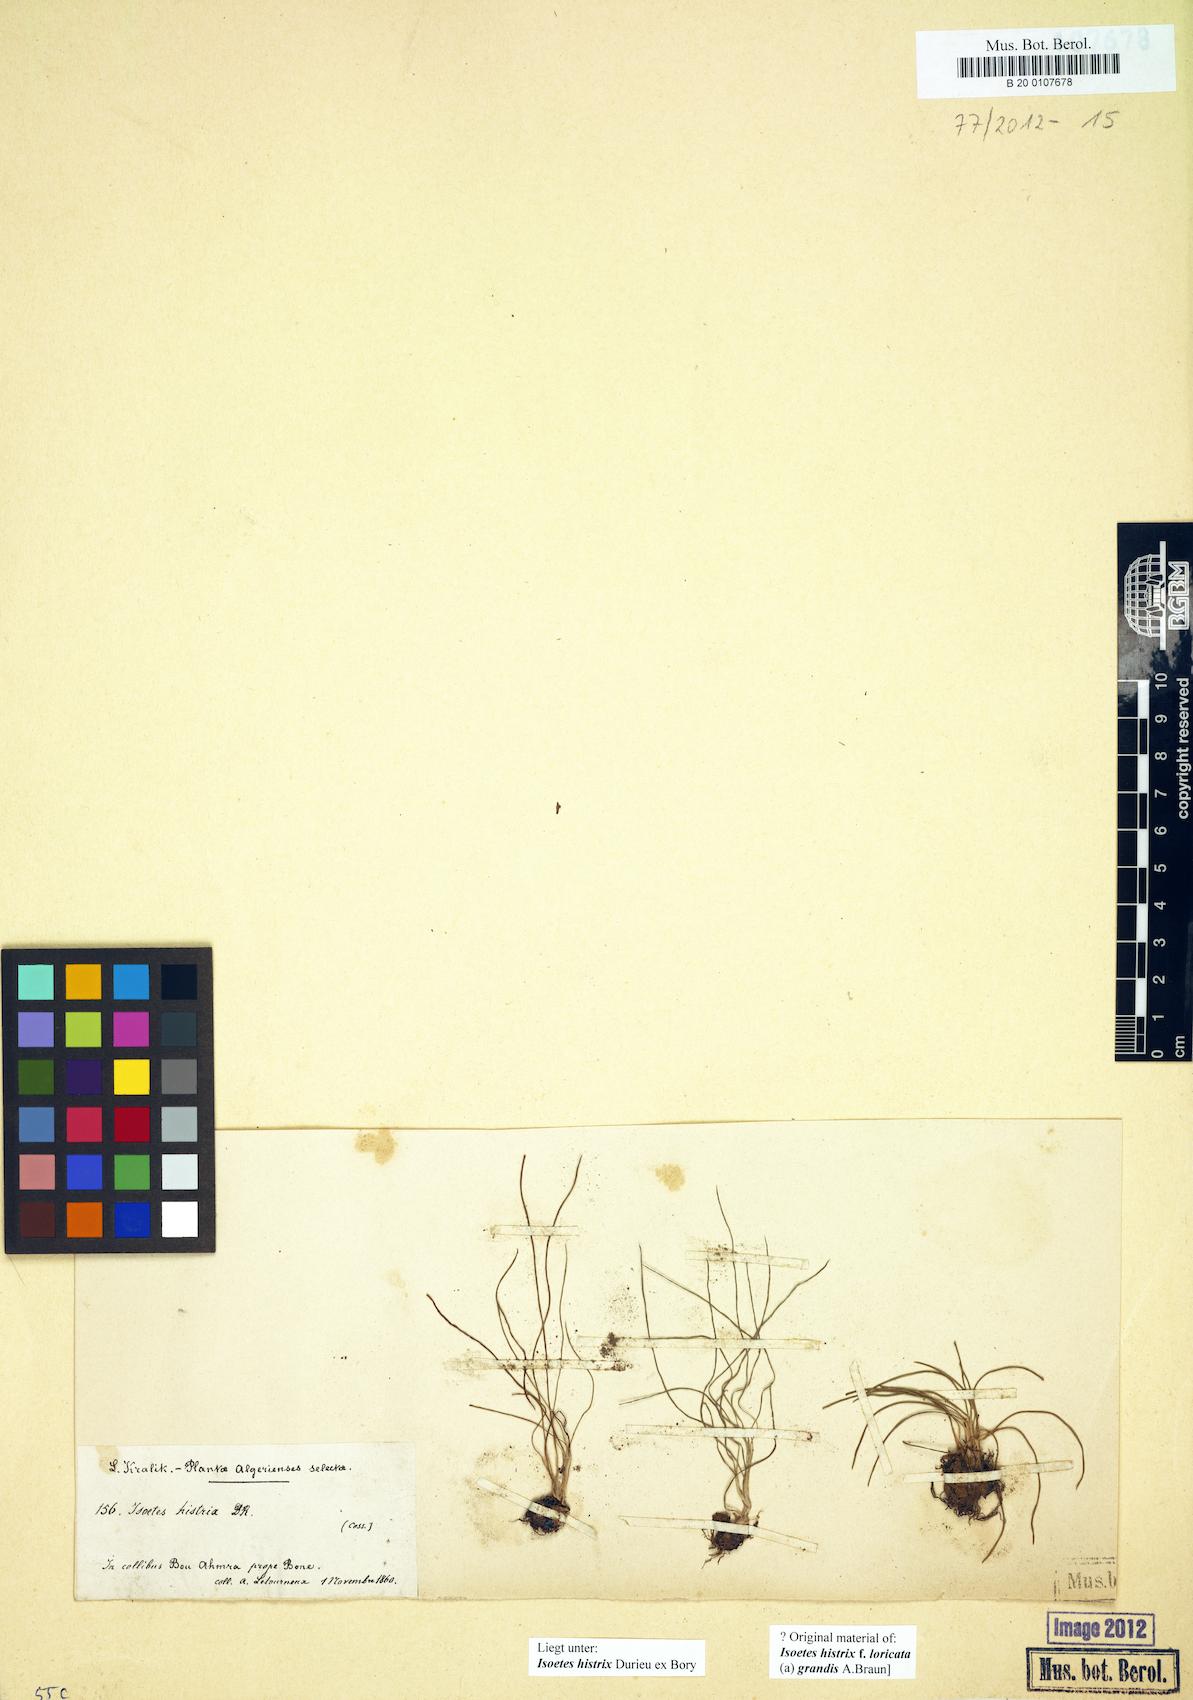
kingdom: Plantae
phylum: Tracheophyta
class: Lycopodiopsida
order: Isoetales
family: Isoetaceae
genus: Isoetes
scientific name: Isoetes histrix
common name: Land quillwort
